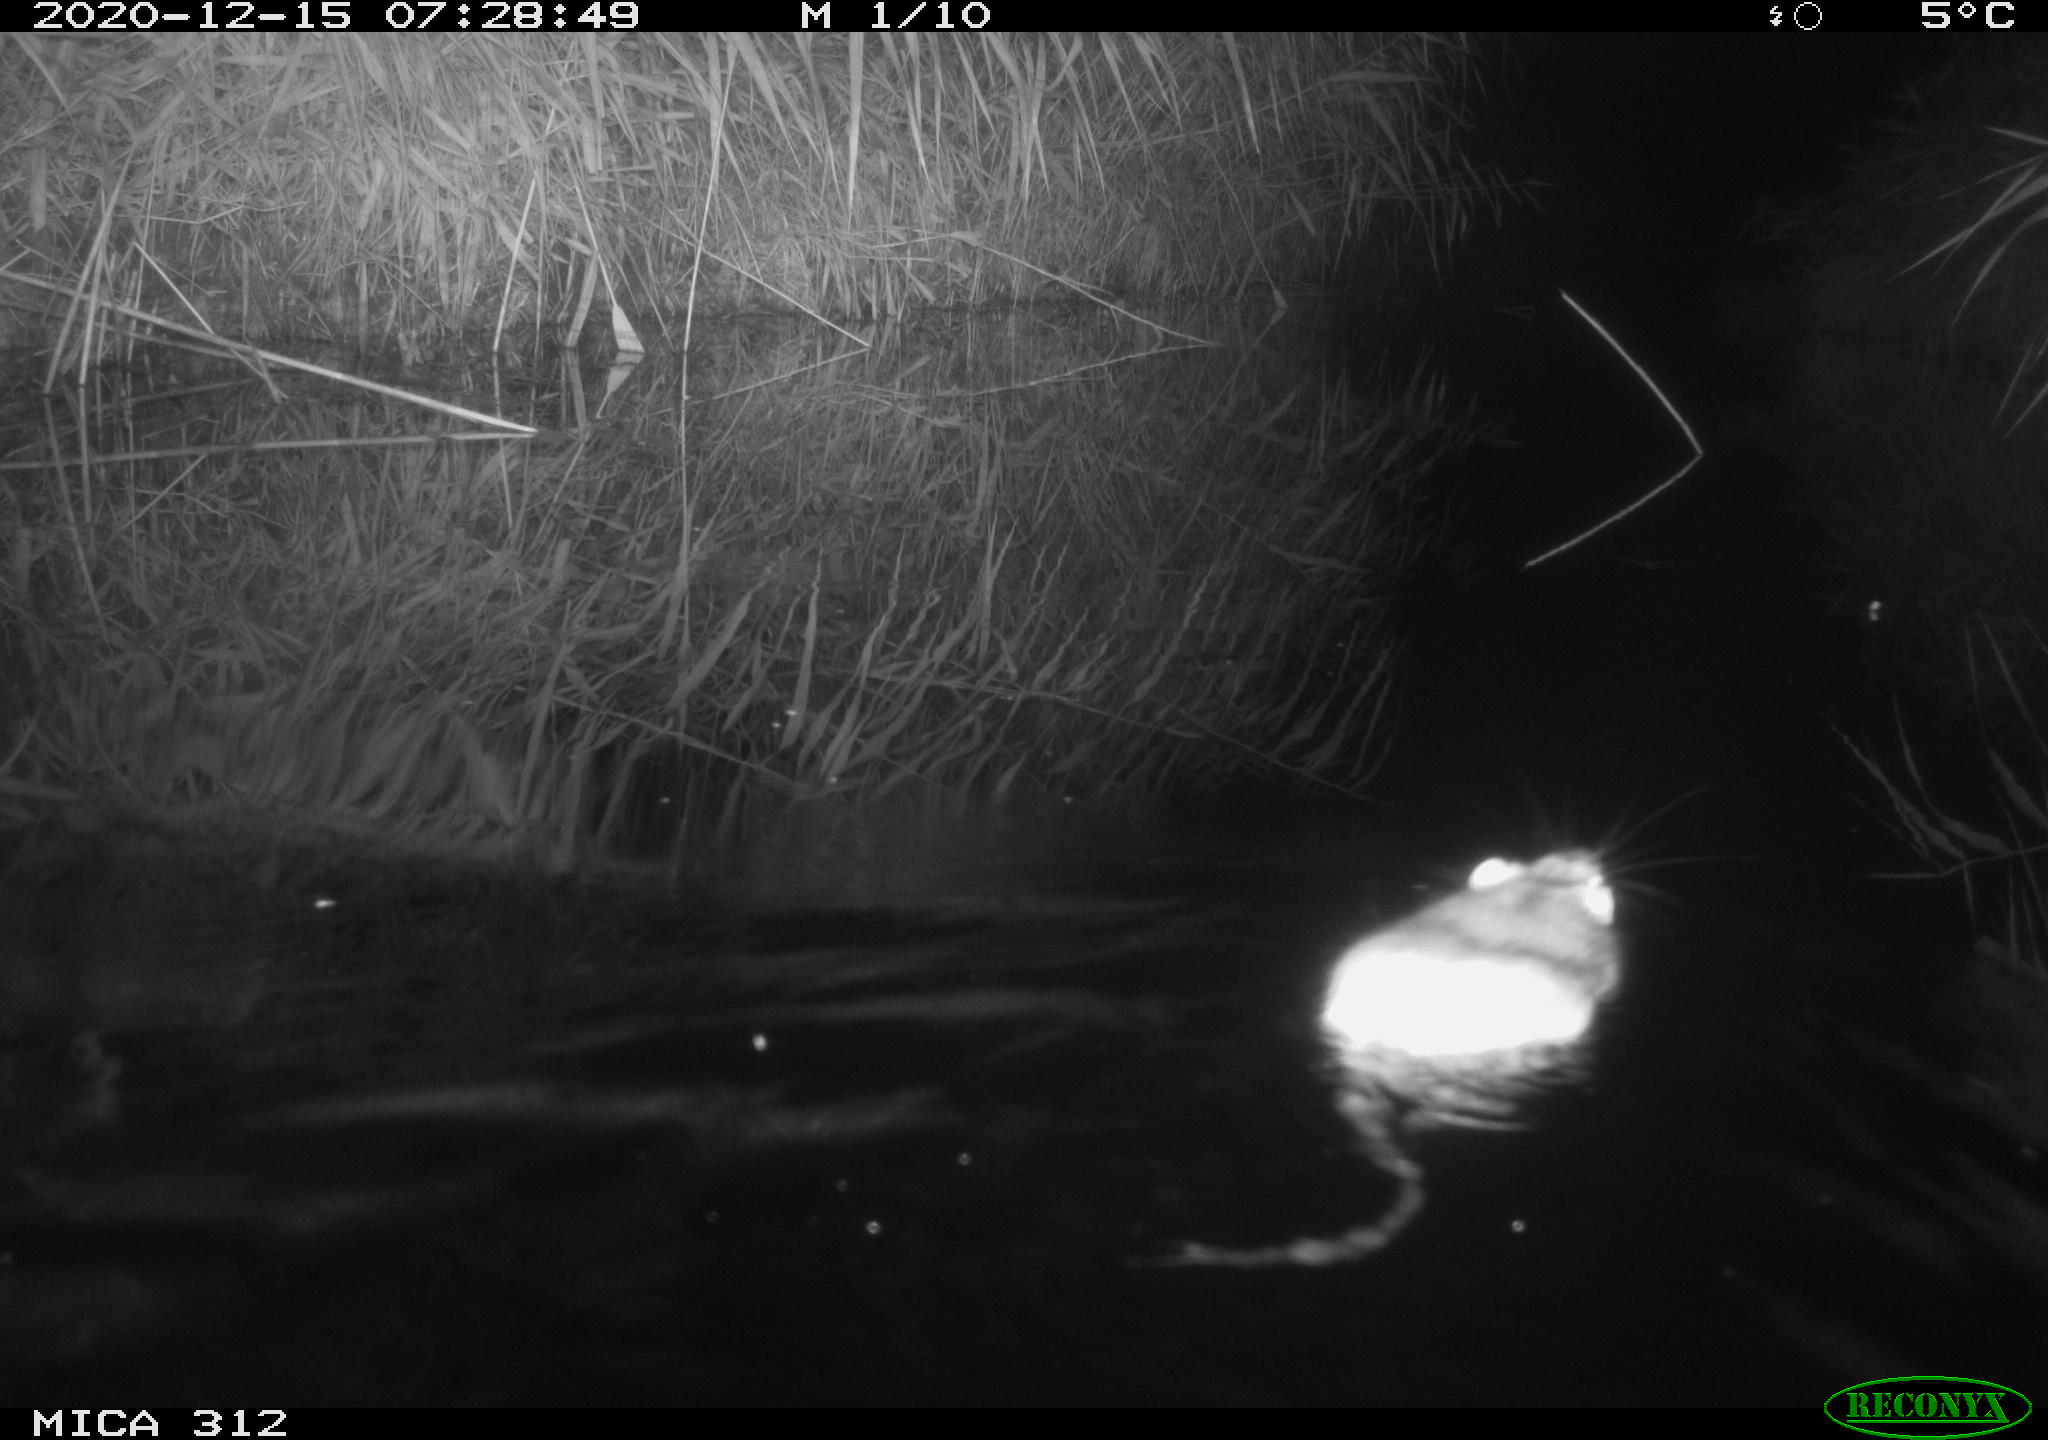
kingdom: Animalia
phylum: Chordata
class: Mammalia
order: Rodentia
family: Muridae
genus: Rattus
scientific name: Rattus norvegicus
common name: Brown rat
